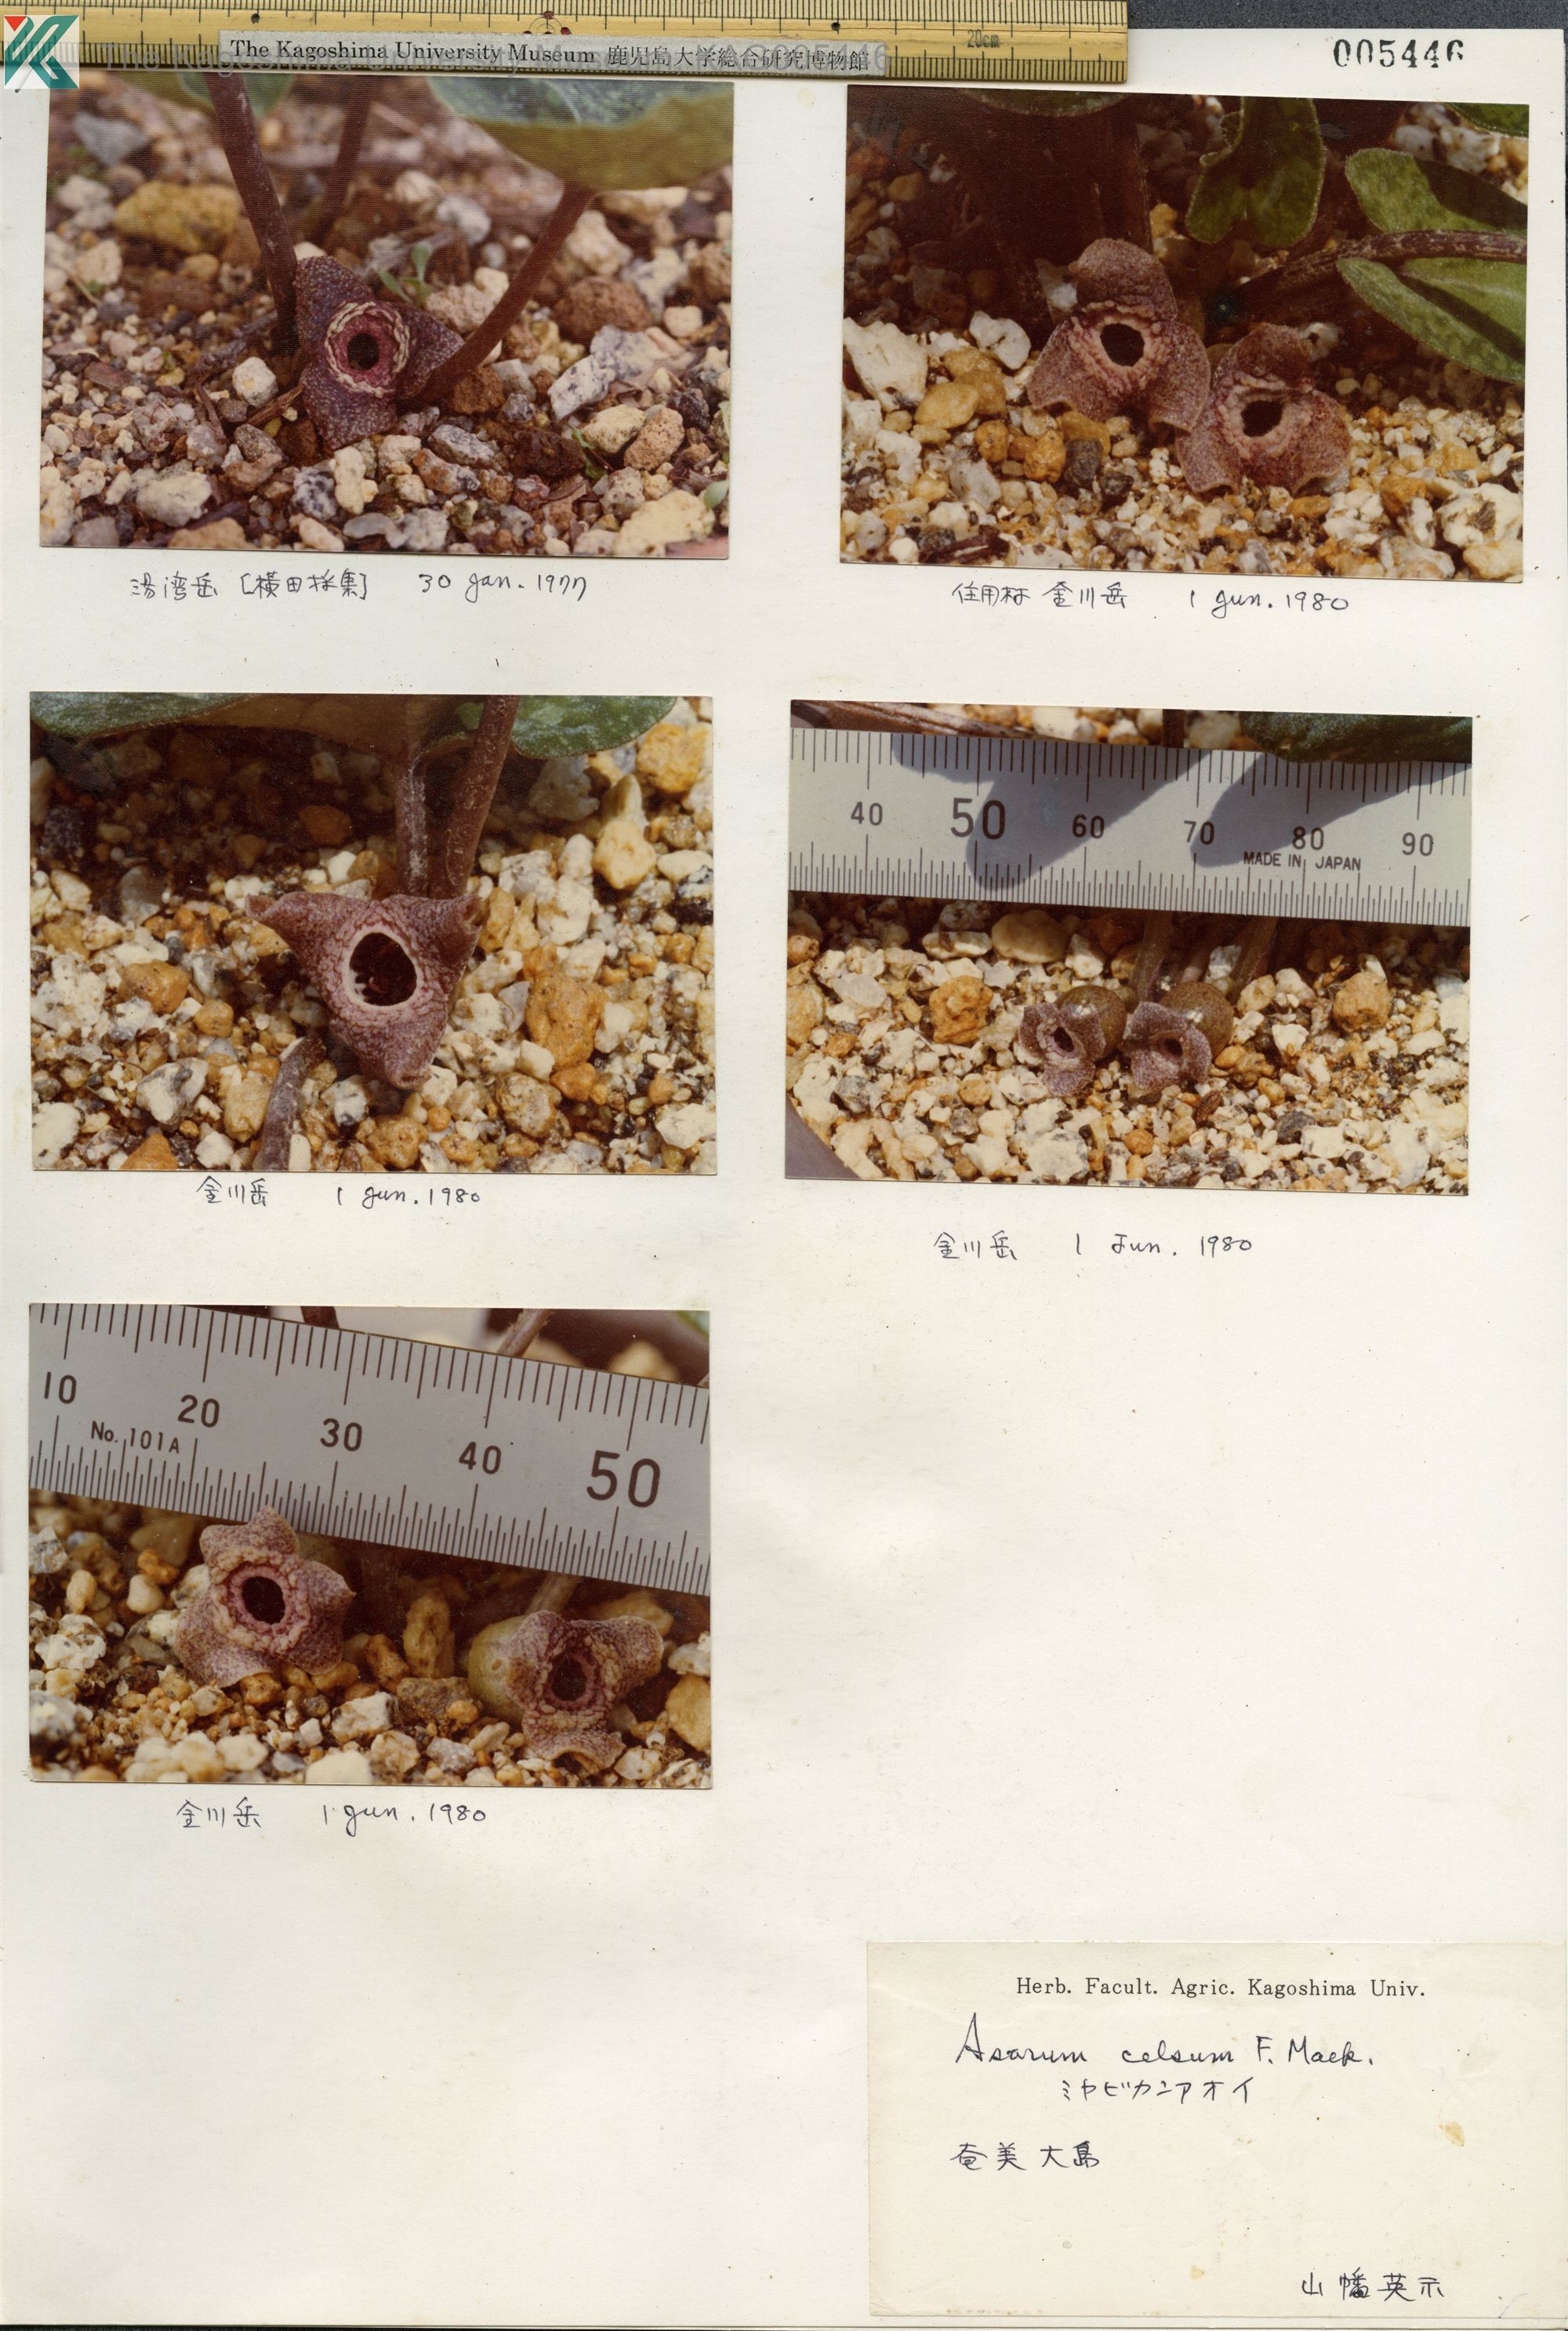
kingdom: Plantae
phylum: Tracheophyta
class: Magnoliopsida
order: Piperales
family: Aristolochiaceae
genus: Asarum
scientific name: Asarum celsum
